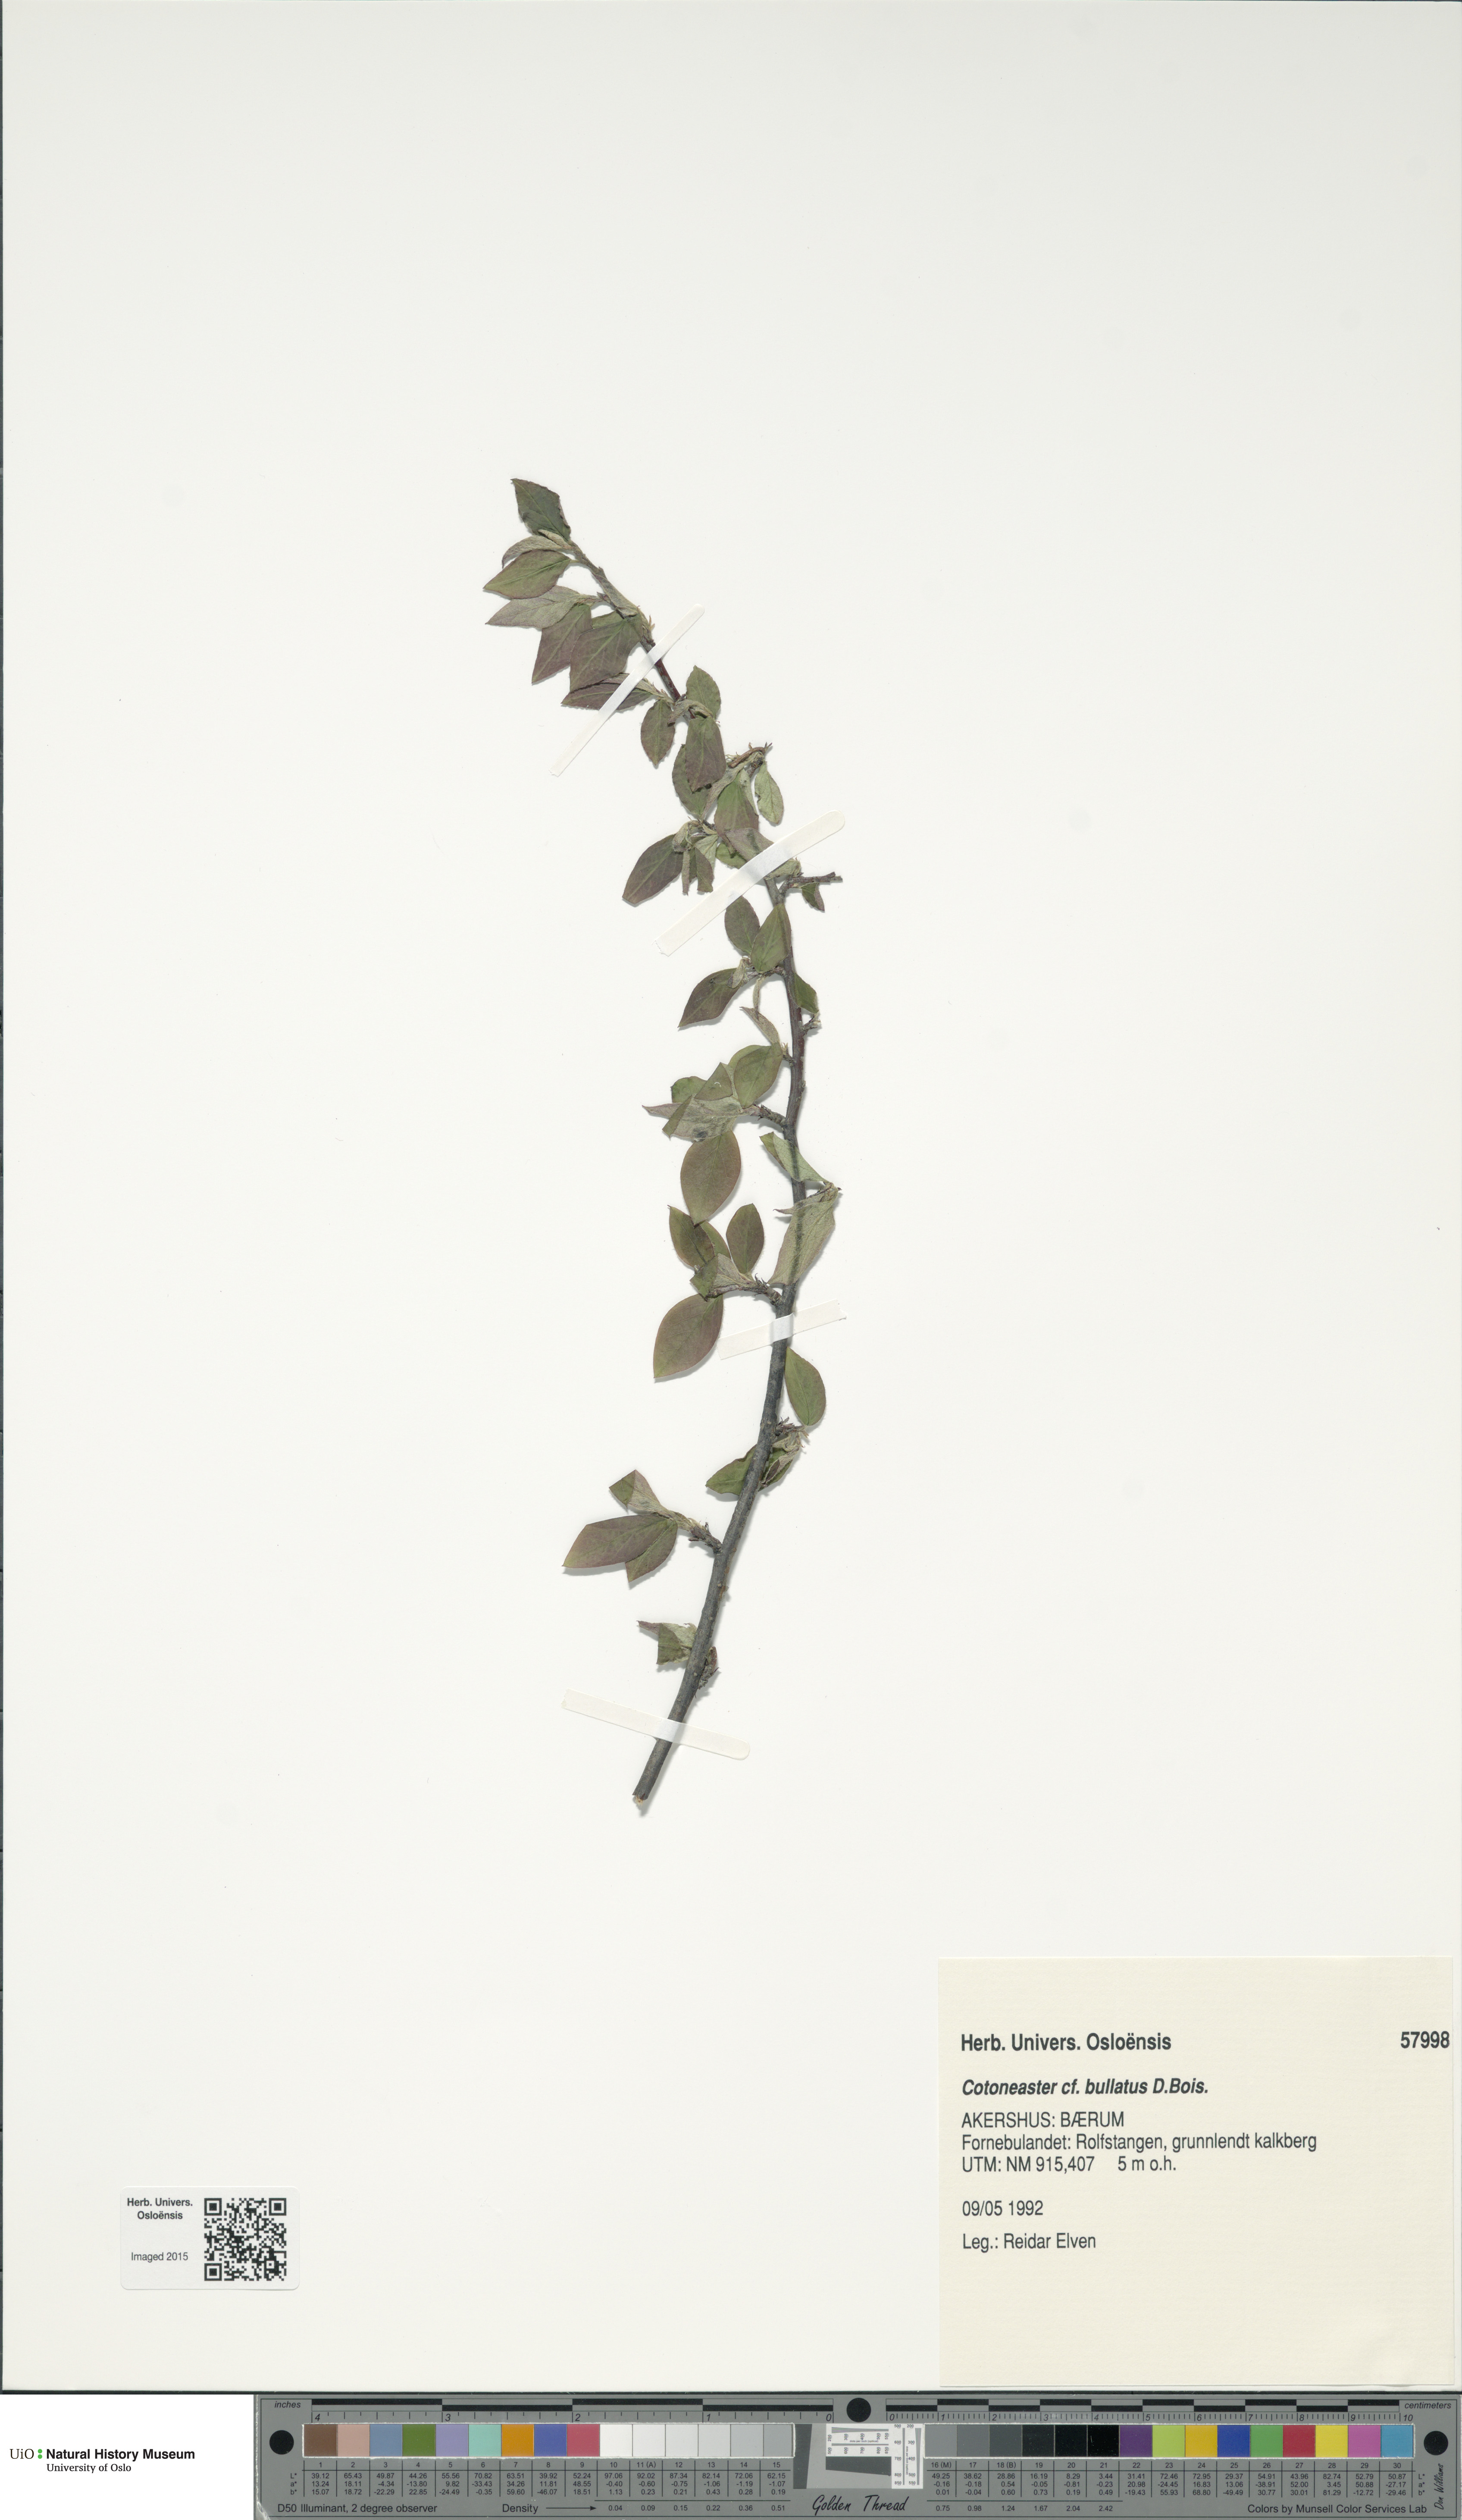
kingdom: Plantae
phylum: Tracheophyta
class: Magnoliopsida
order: Rosales
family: Rosaceae
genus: Cotoneaster
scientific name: Cotoneaster bullatus
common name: Hollyberry cotoneaster
